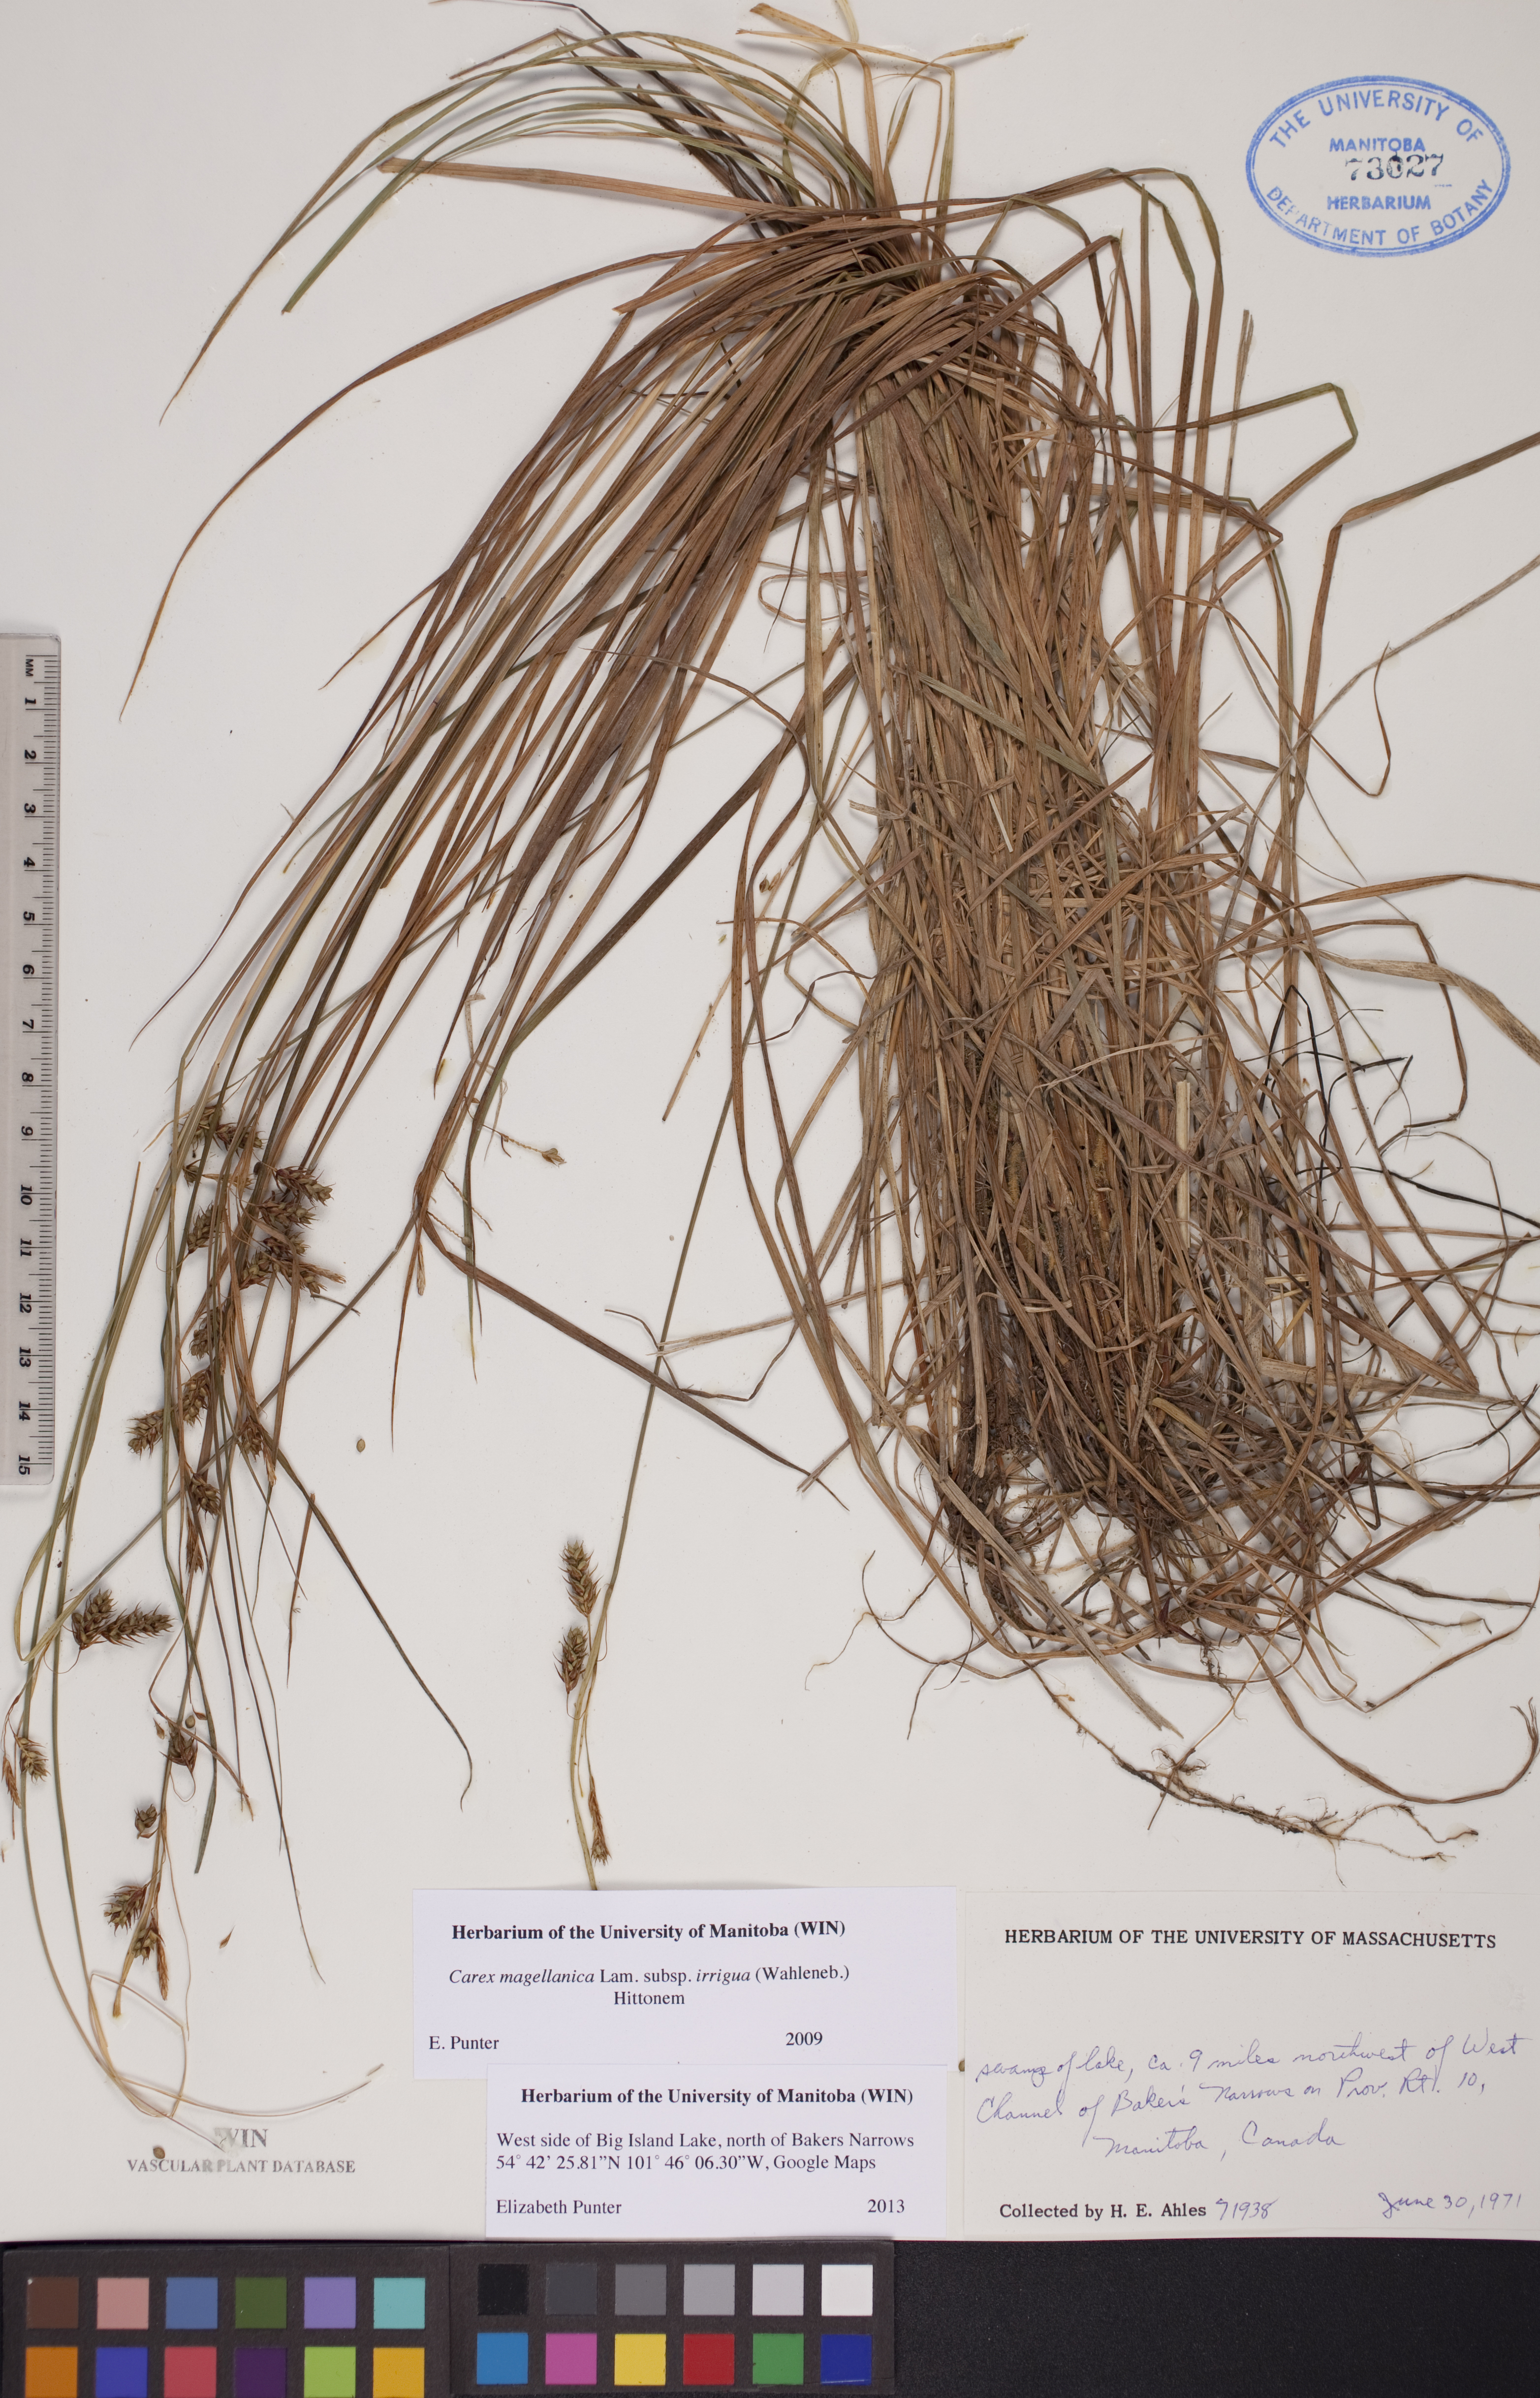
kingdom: Plantae
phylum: Tracheophyta
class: Liliopsida
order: Poales
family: Cyperaceae
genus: Carex
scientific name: Carex magellanica
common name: Bog sedge
